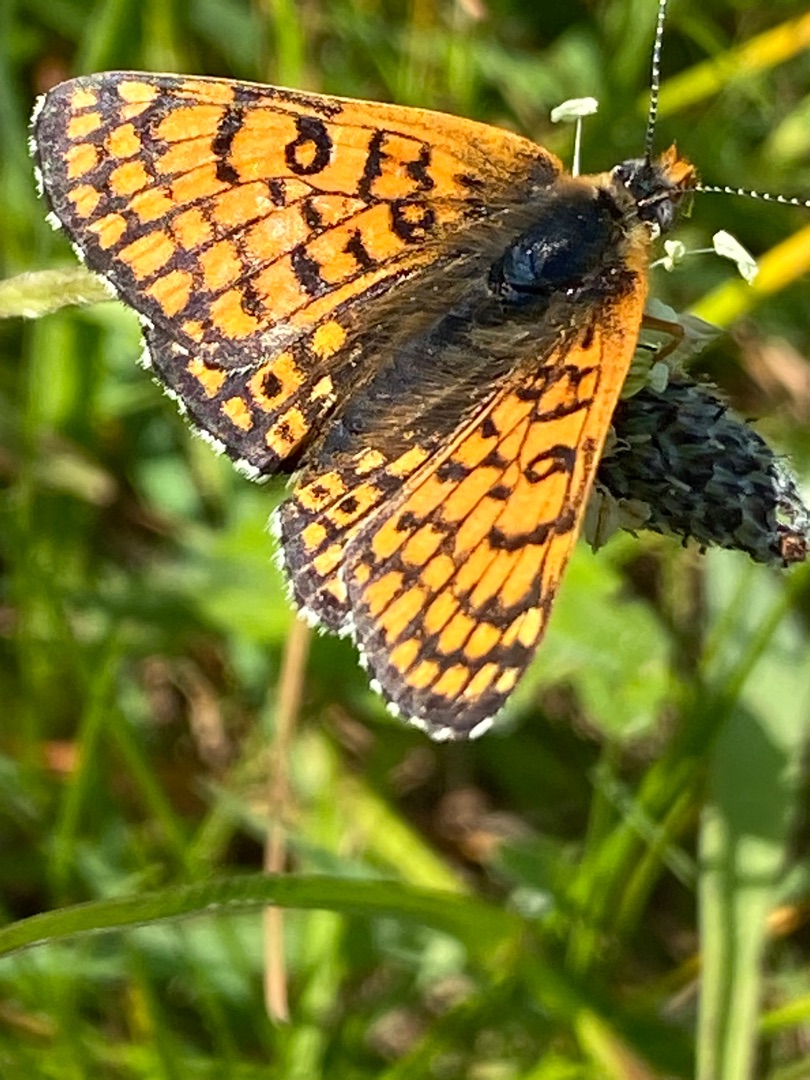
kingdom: Animalia
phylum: Arthropoda
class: Insecta
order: Lepidoptera
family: Nymphalidae
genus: Melitaea
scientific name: Melitaea cinxia
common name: Okkergul pletvinge
